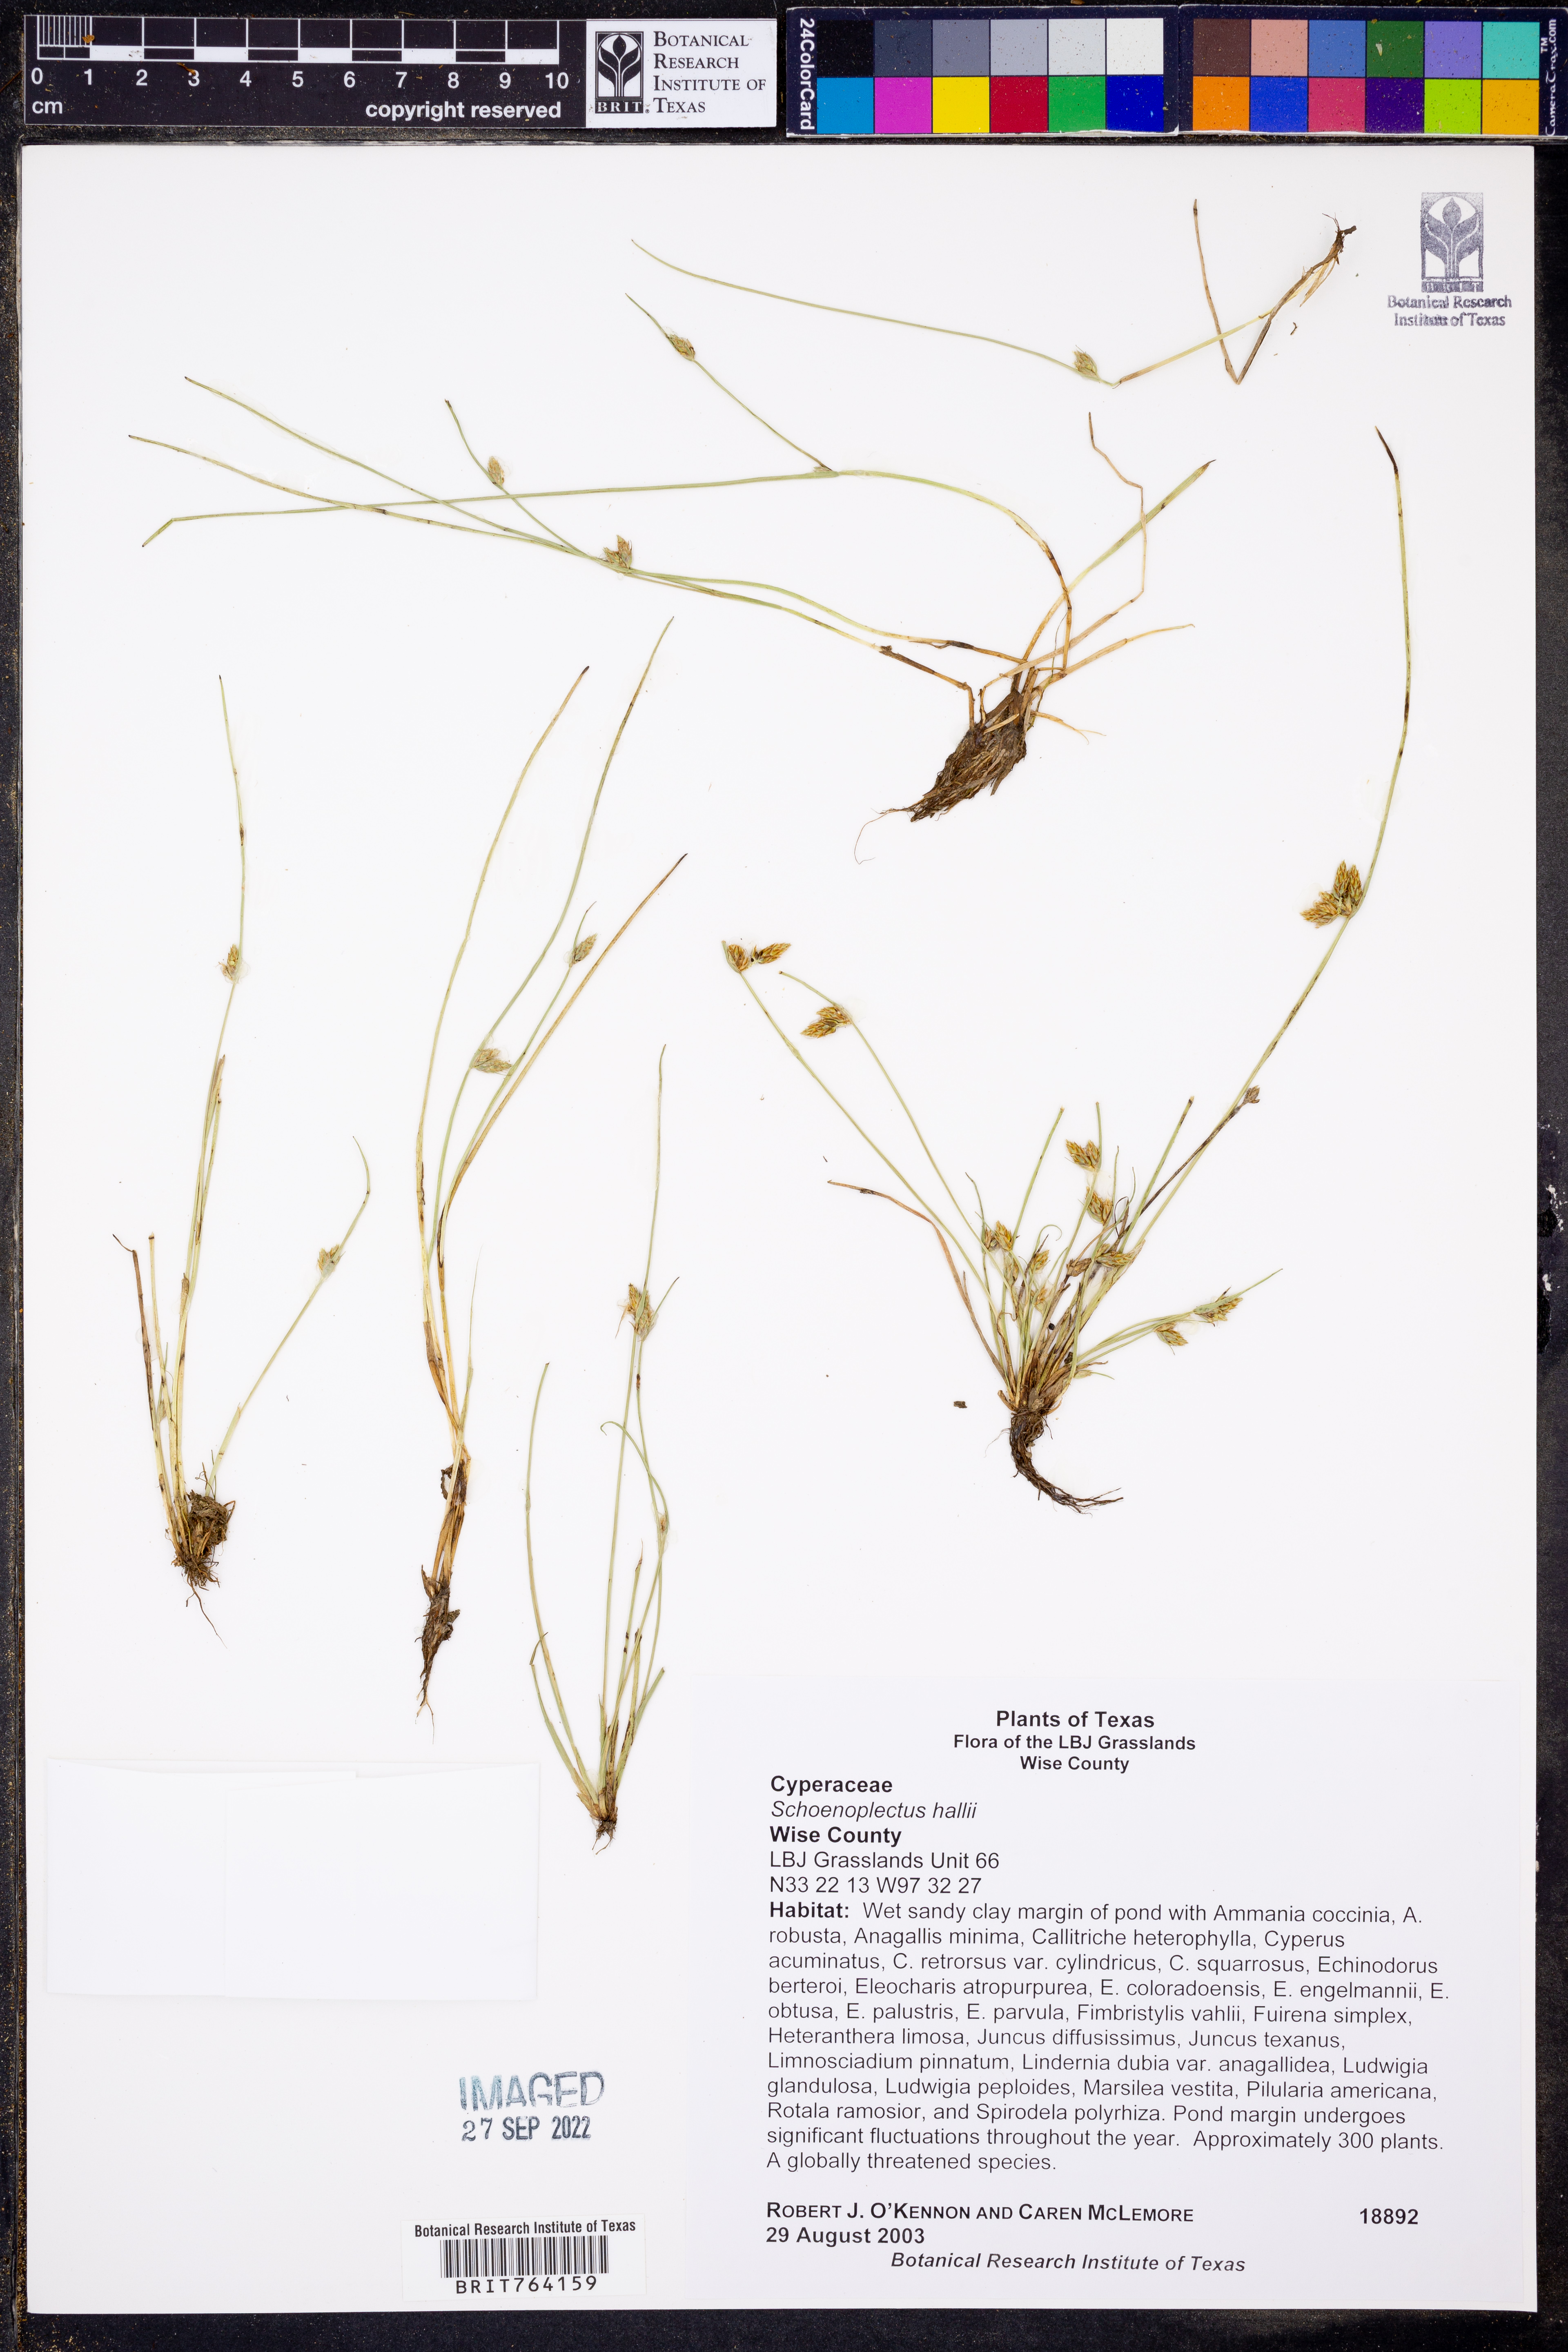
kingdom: Plantae
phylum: Tracheophyta
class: Liliopsida
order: Poales
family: Cyperaceae
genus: Schoenoplectiella
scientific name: Schoenoplectiella hallii
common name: Hall's bullrush
